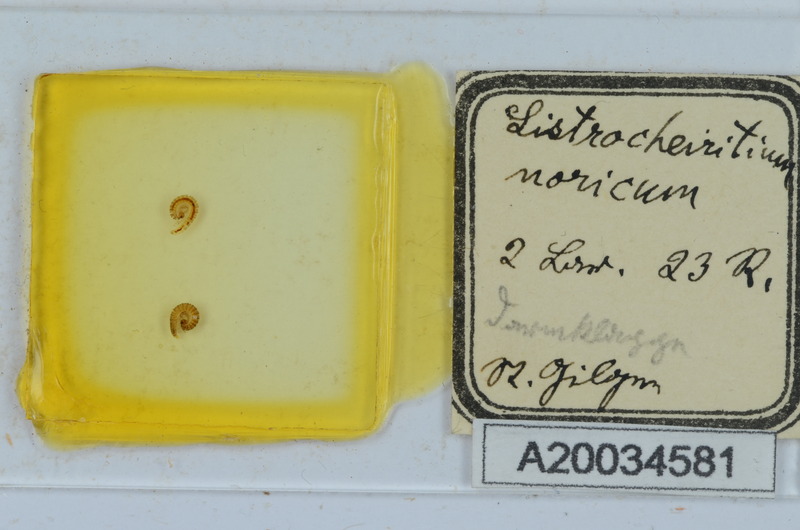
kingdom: Animalia
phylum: Arthropoda
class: Diplopoda
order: Chordeumatida
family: Craspedosomatidae
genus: Listrocheiritium
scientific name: Listrocheiritium noricum
